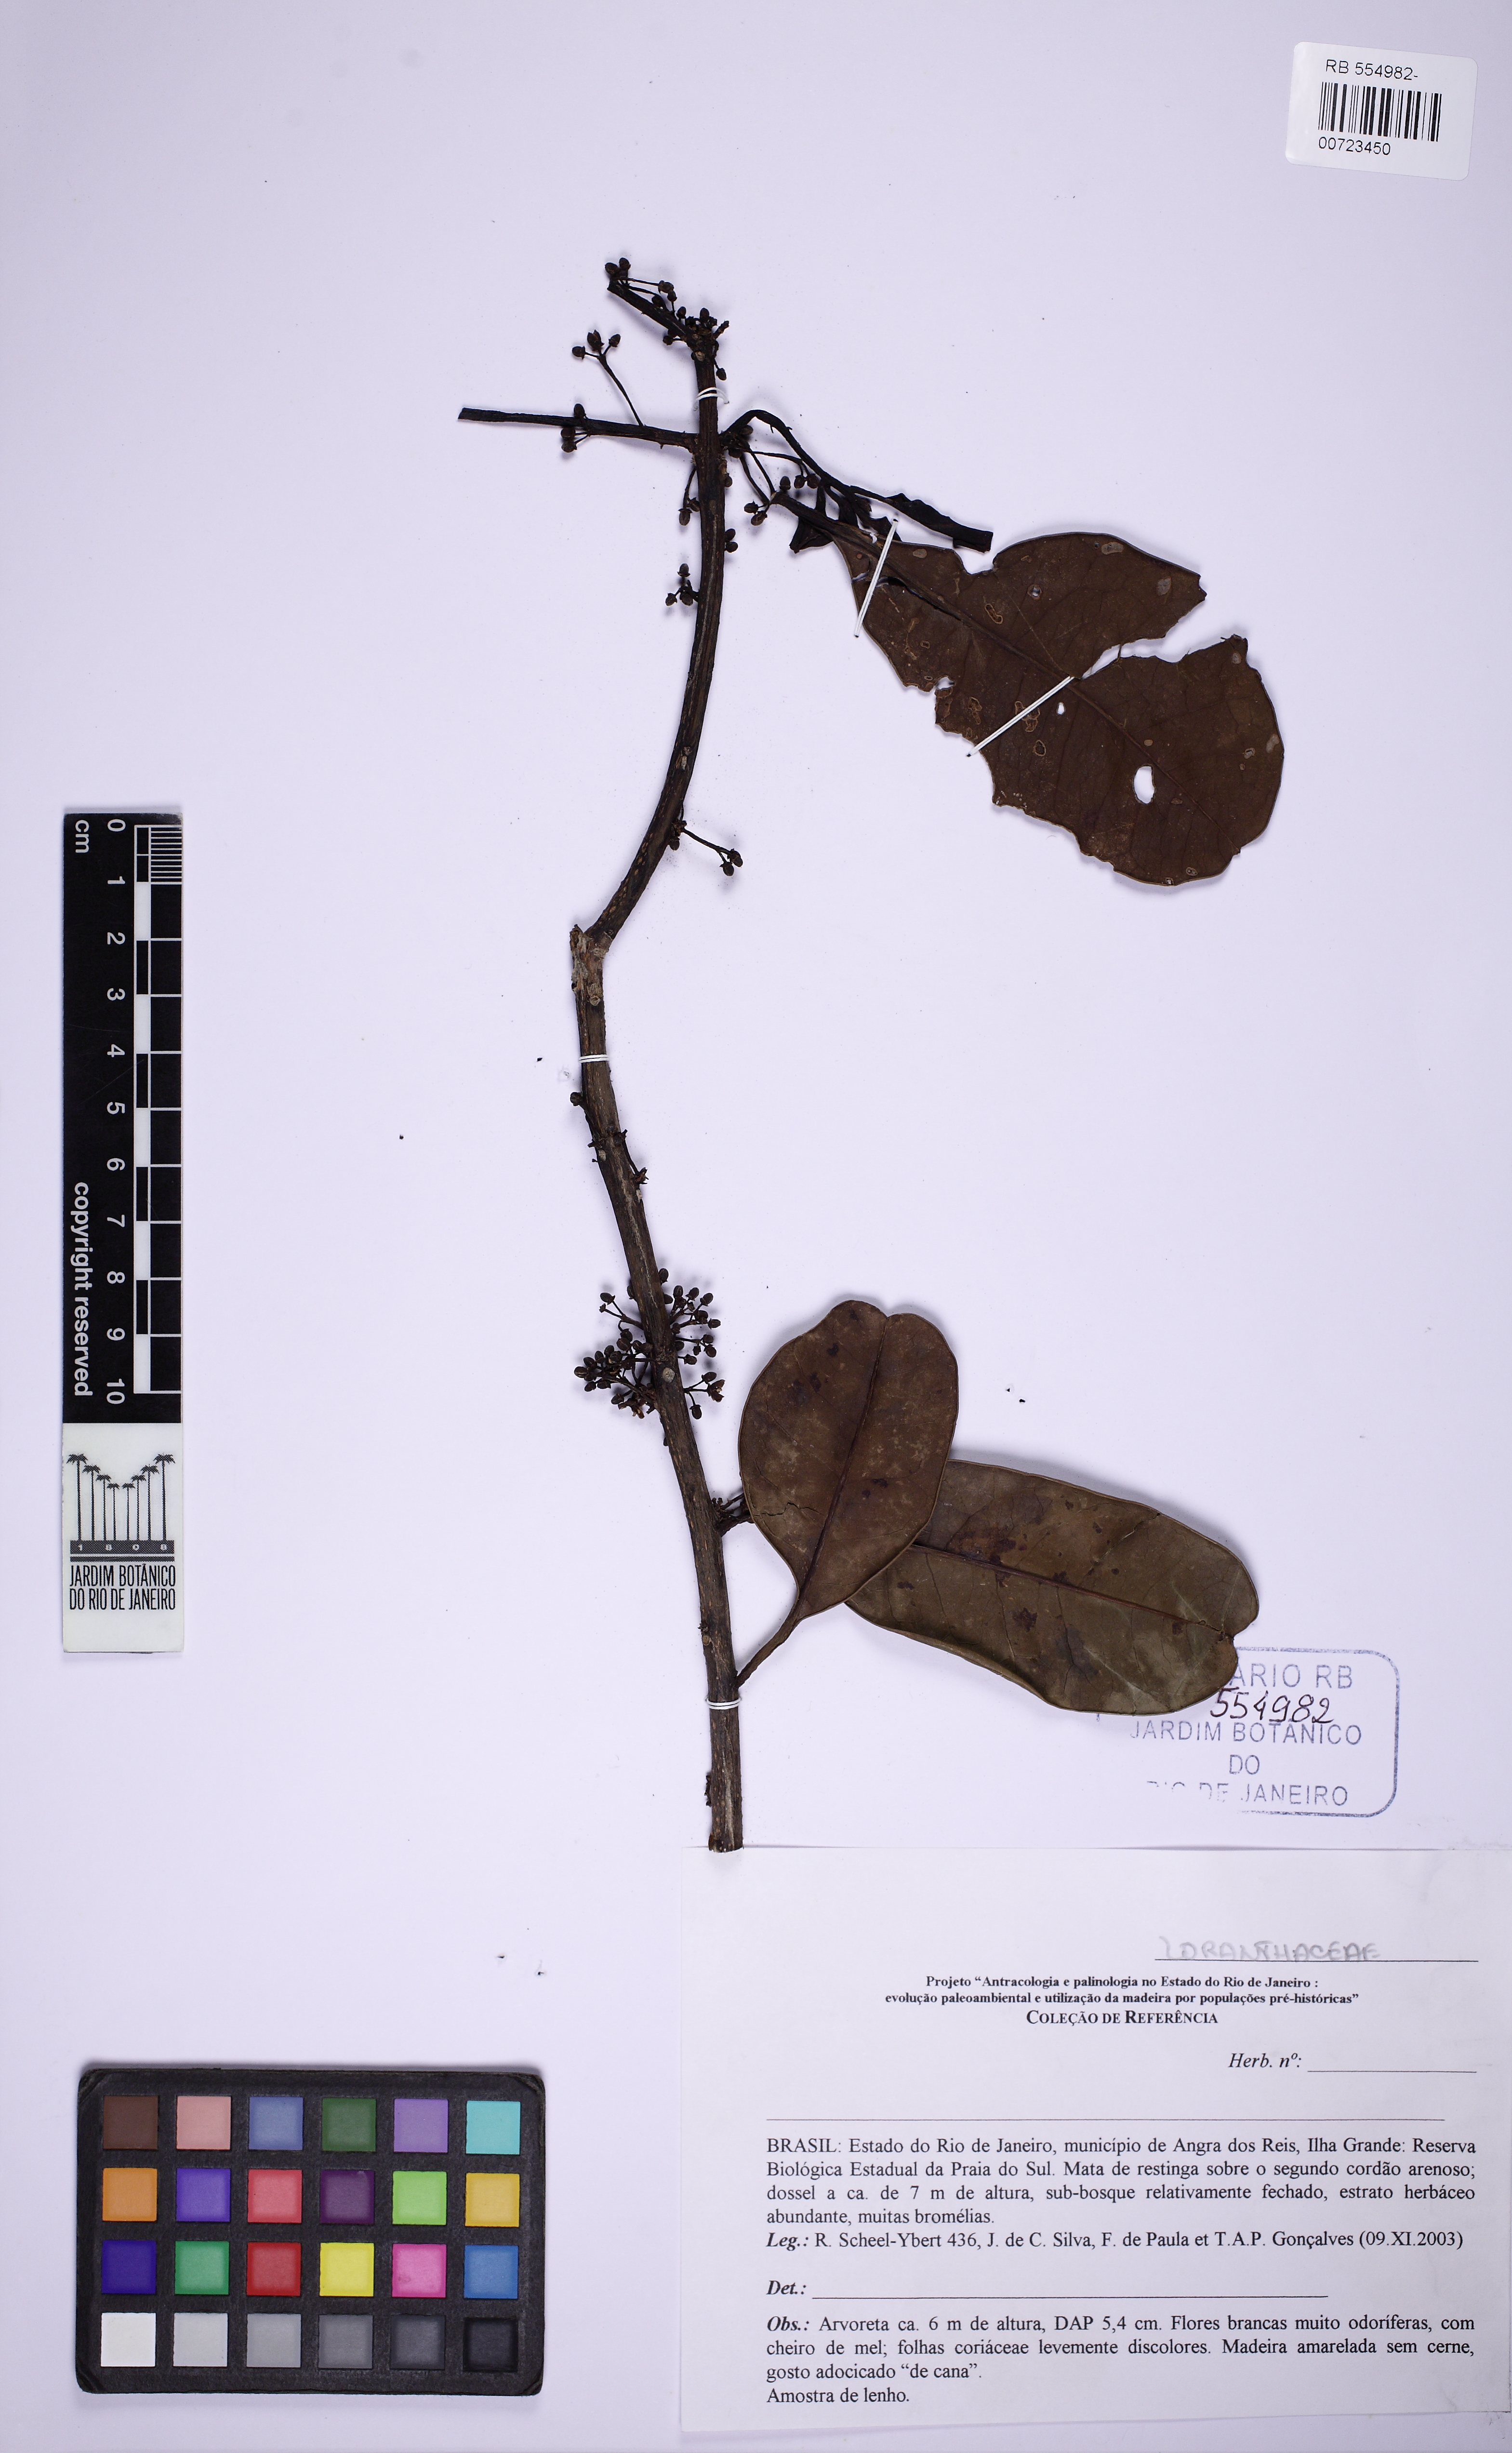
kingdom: Plantae
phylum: Tracheophyta
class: Magnoliopsida
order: Aquifoliales
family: Aquifoliaceae
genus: Ilex
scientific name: Ilex
